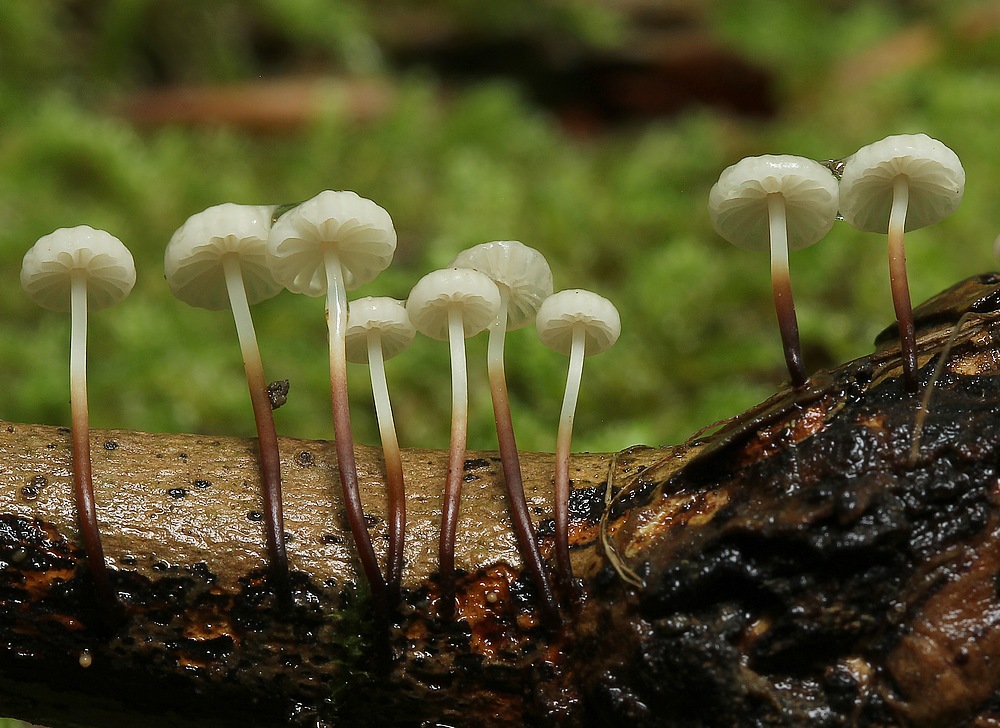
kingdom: Fungi
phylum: Basidiomycota
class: Agaricomycetes
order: Agaricales
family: Marasmiaceae
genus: Marasmius
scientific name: Marasmius rotula
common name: hjul-bruskhat
